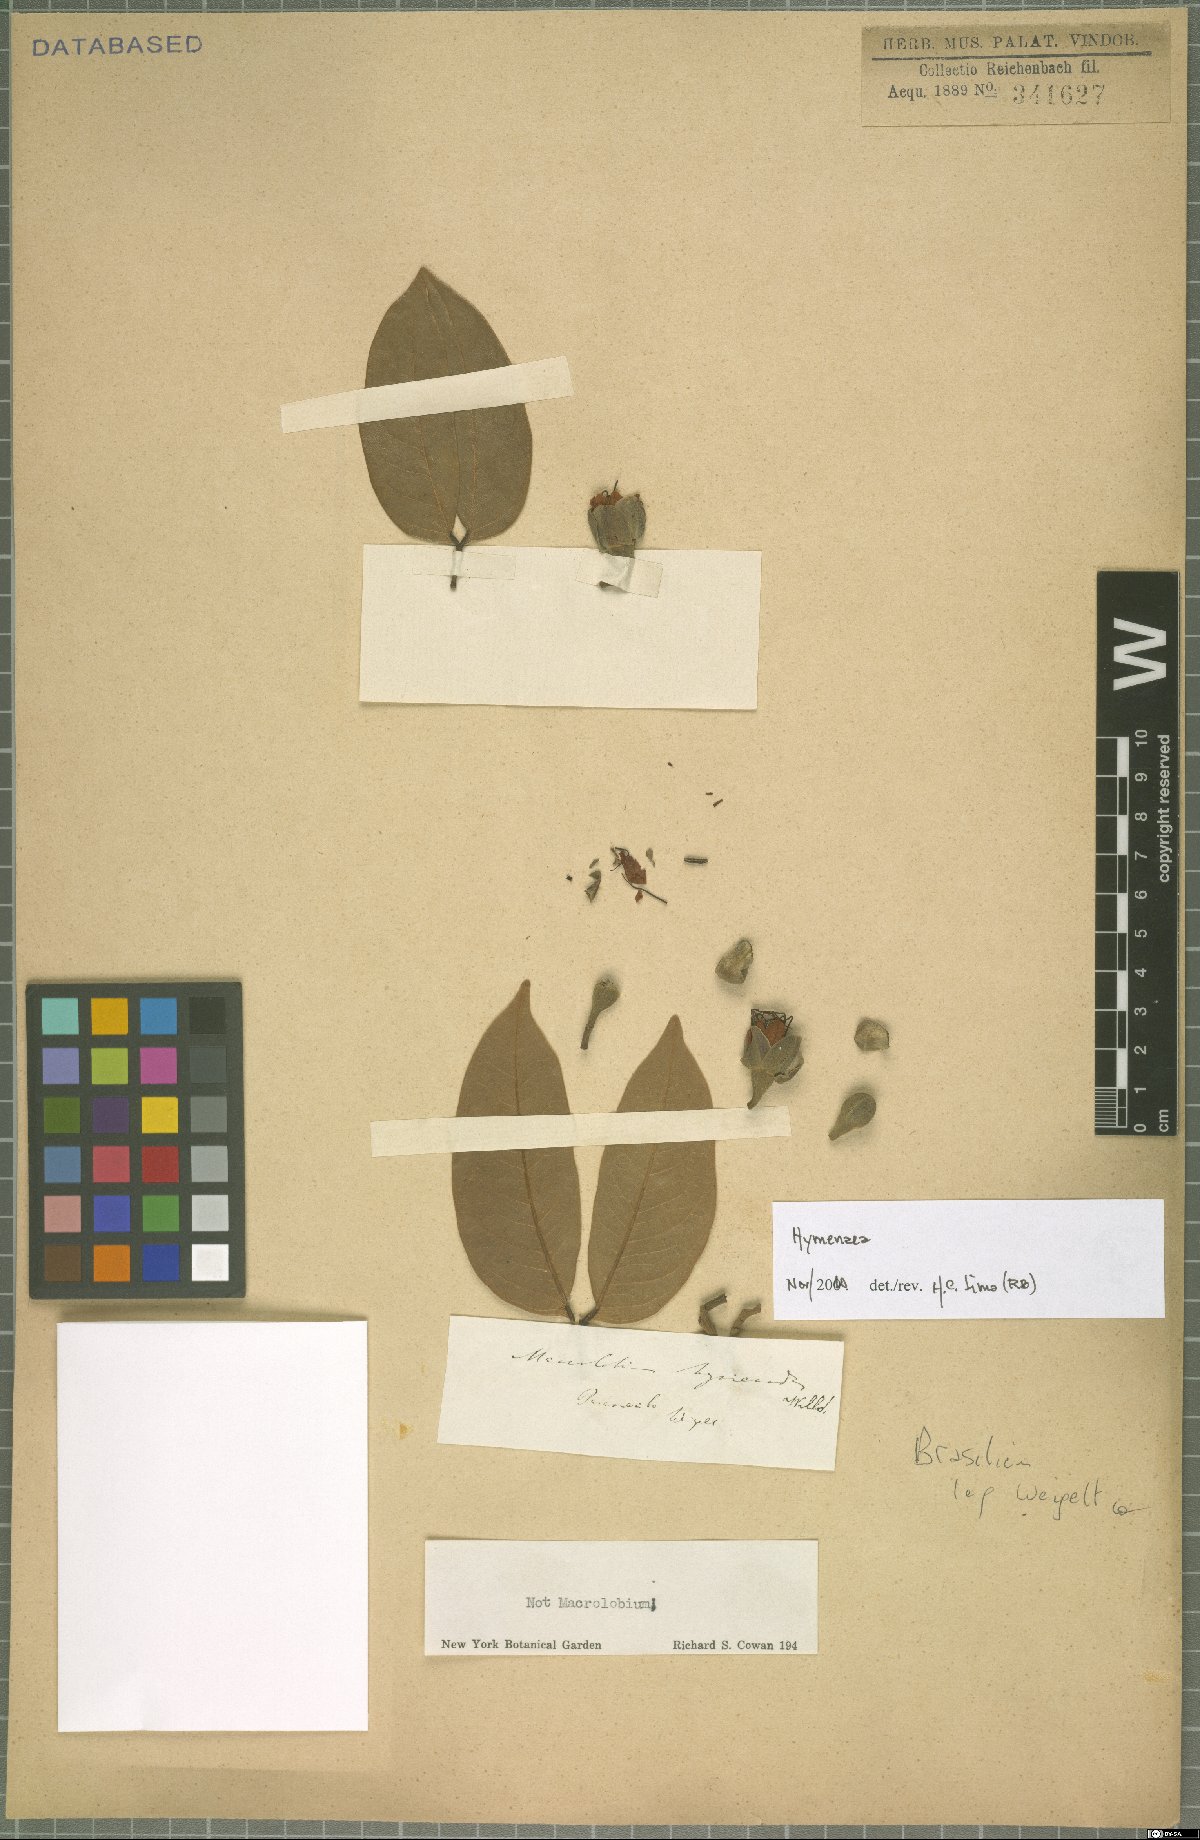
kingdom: Plantae
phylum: Tracheophyta
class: Magnoliopsida
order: Fabales
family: Fabaceae
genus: Hymenaea
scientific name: Hymenaea
